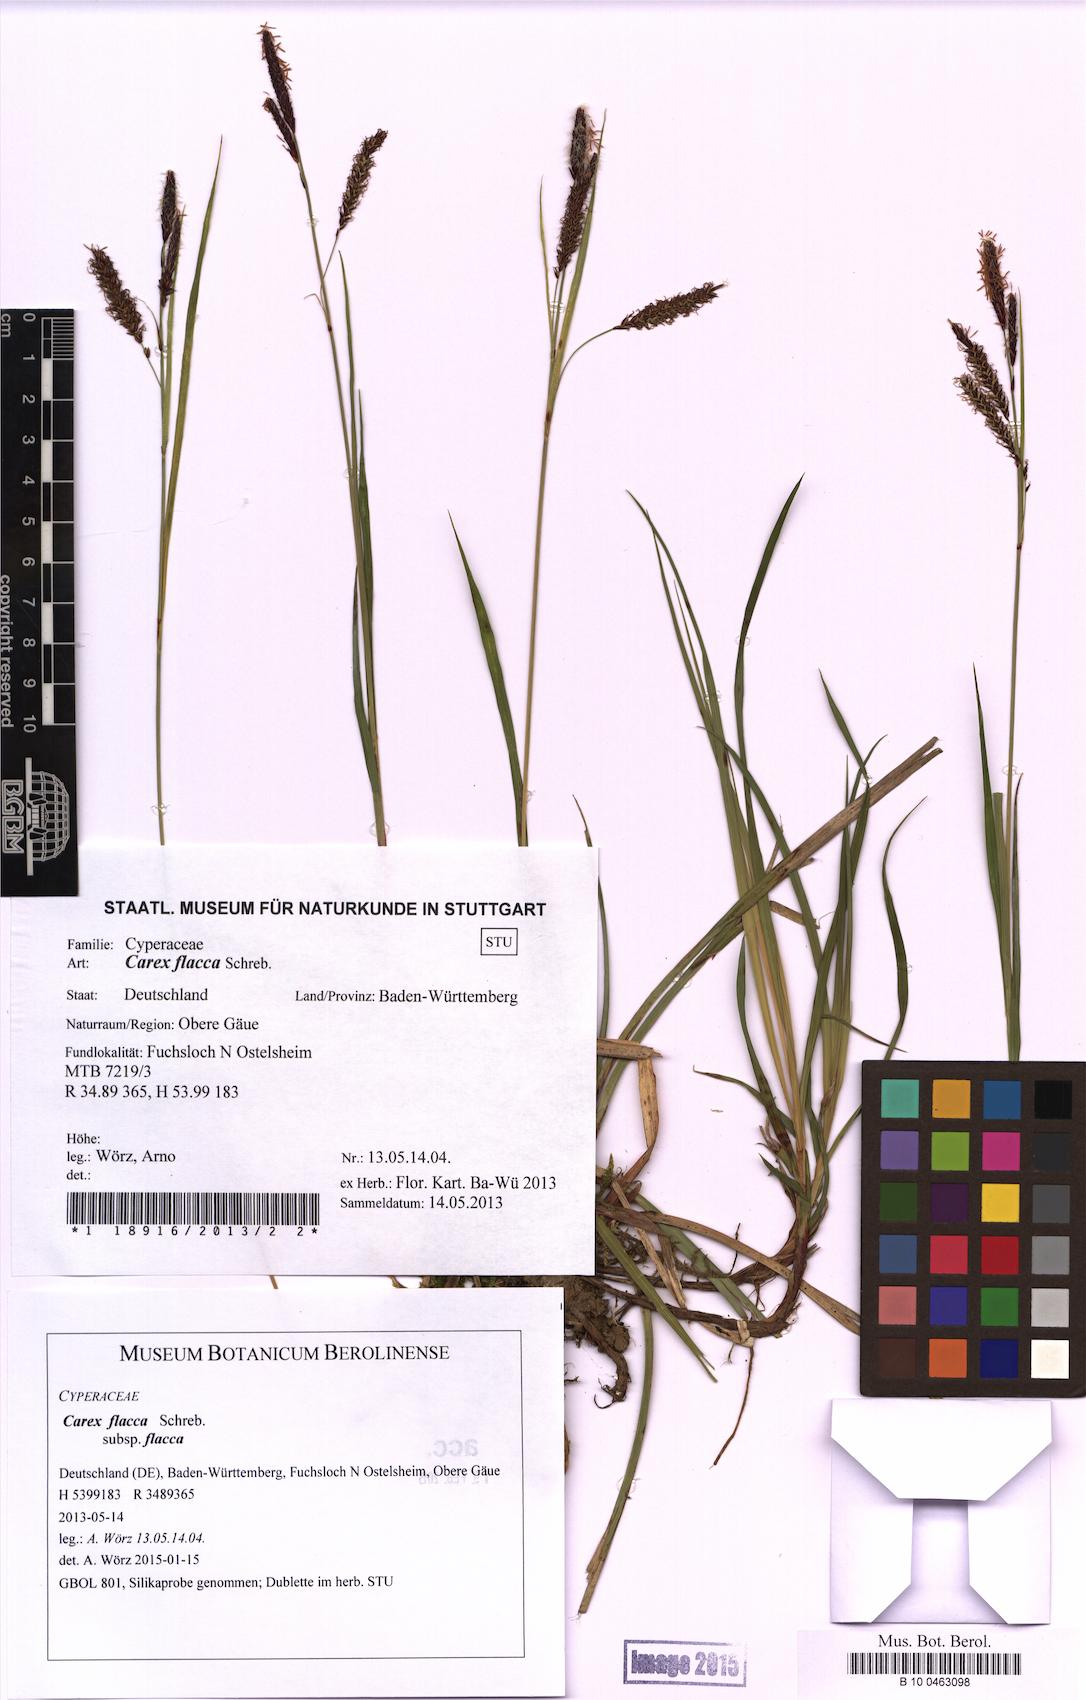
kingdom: Plantae
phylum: Tracheophyta
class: Liliopsida
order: Poales
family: Cyperaceae
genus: Carex
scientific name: Carex flacca
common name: Glaucous sedge
